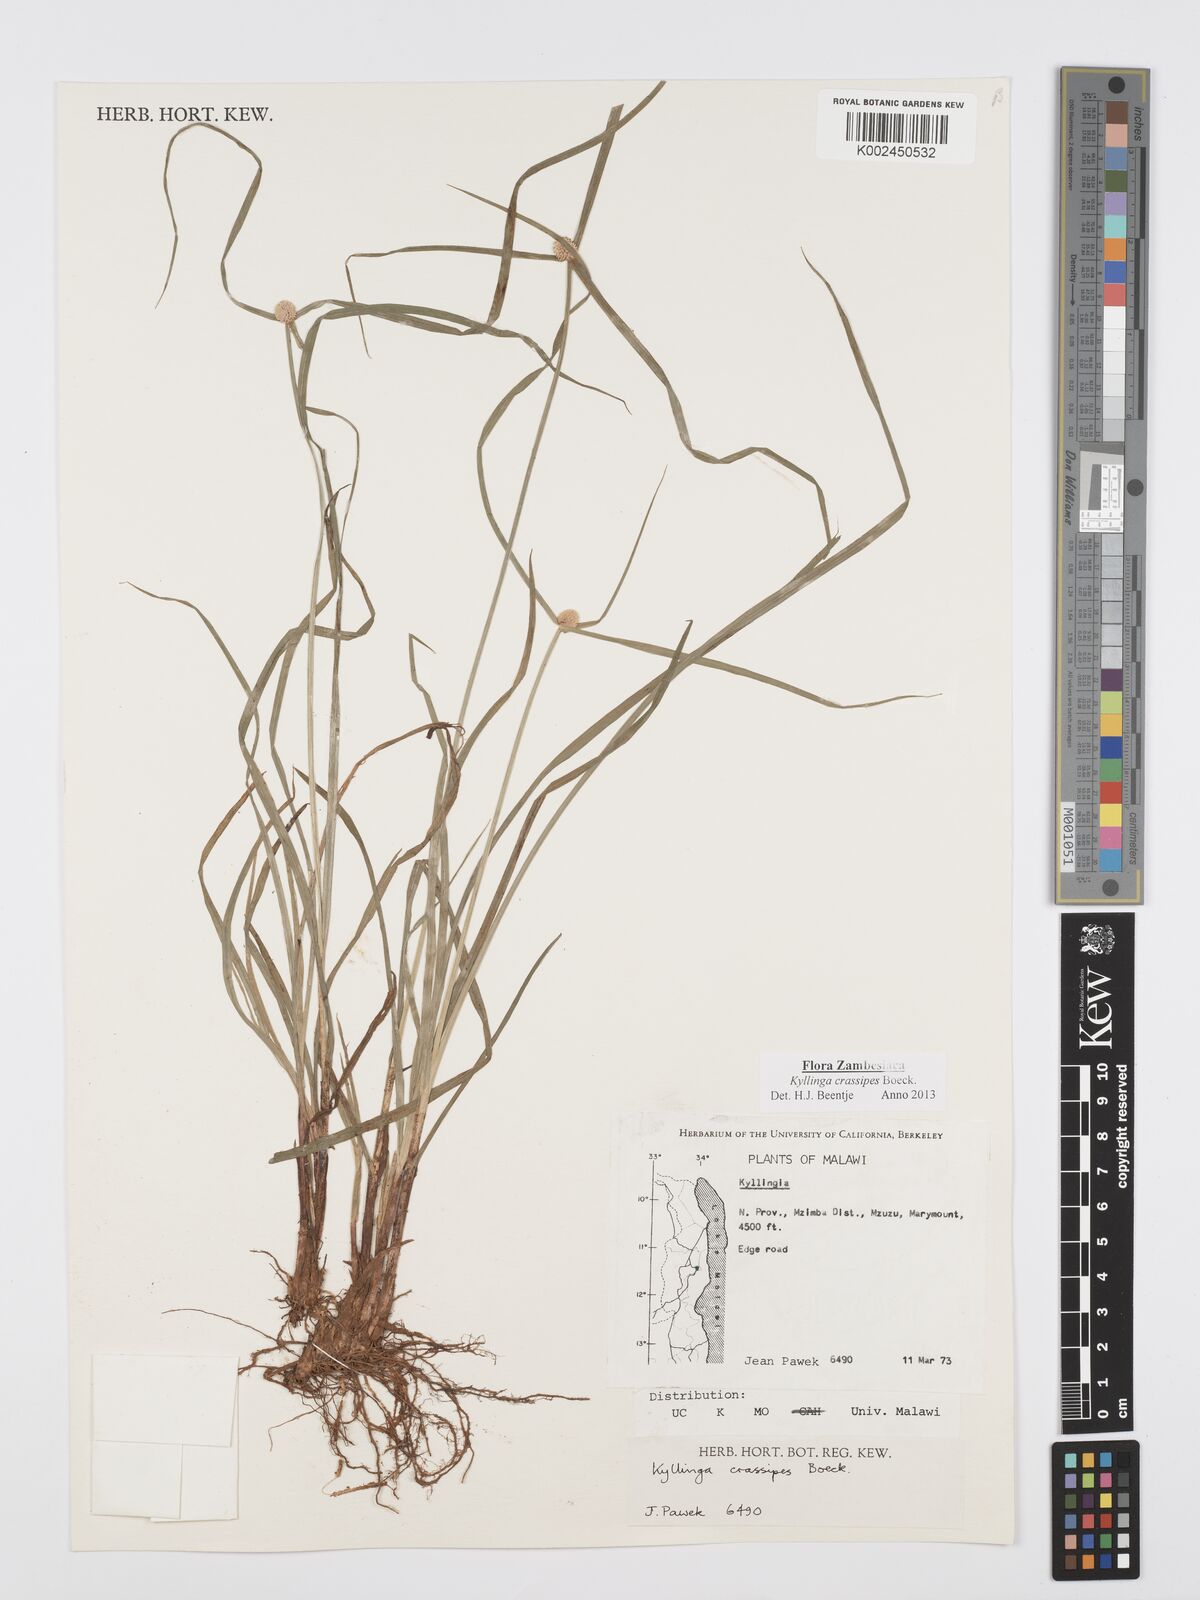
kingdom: Plantae
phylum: Tracheophyta
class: Liliopsida
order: Poales
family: Cyperaceae
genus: Cyperus
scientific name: Cyperus crassipes
